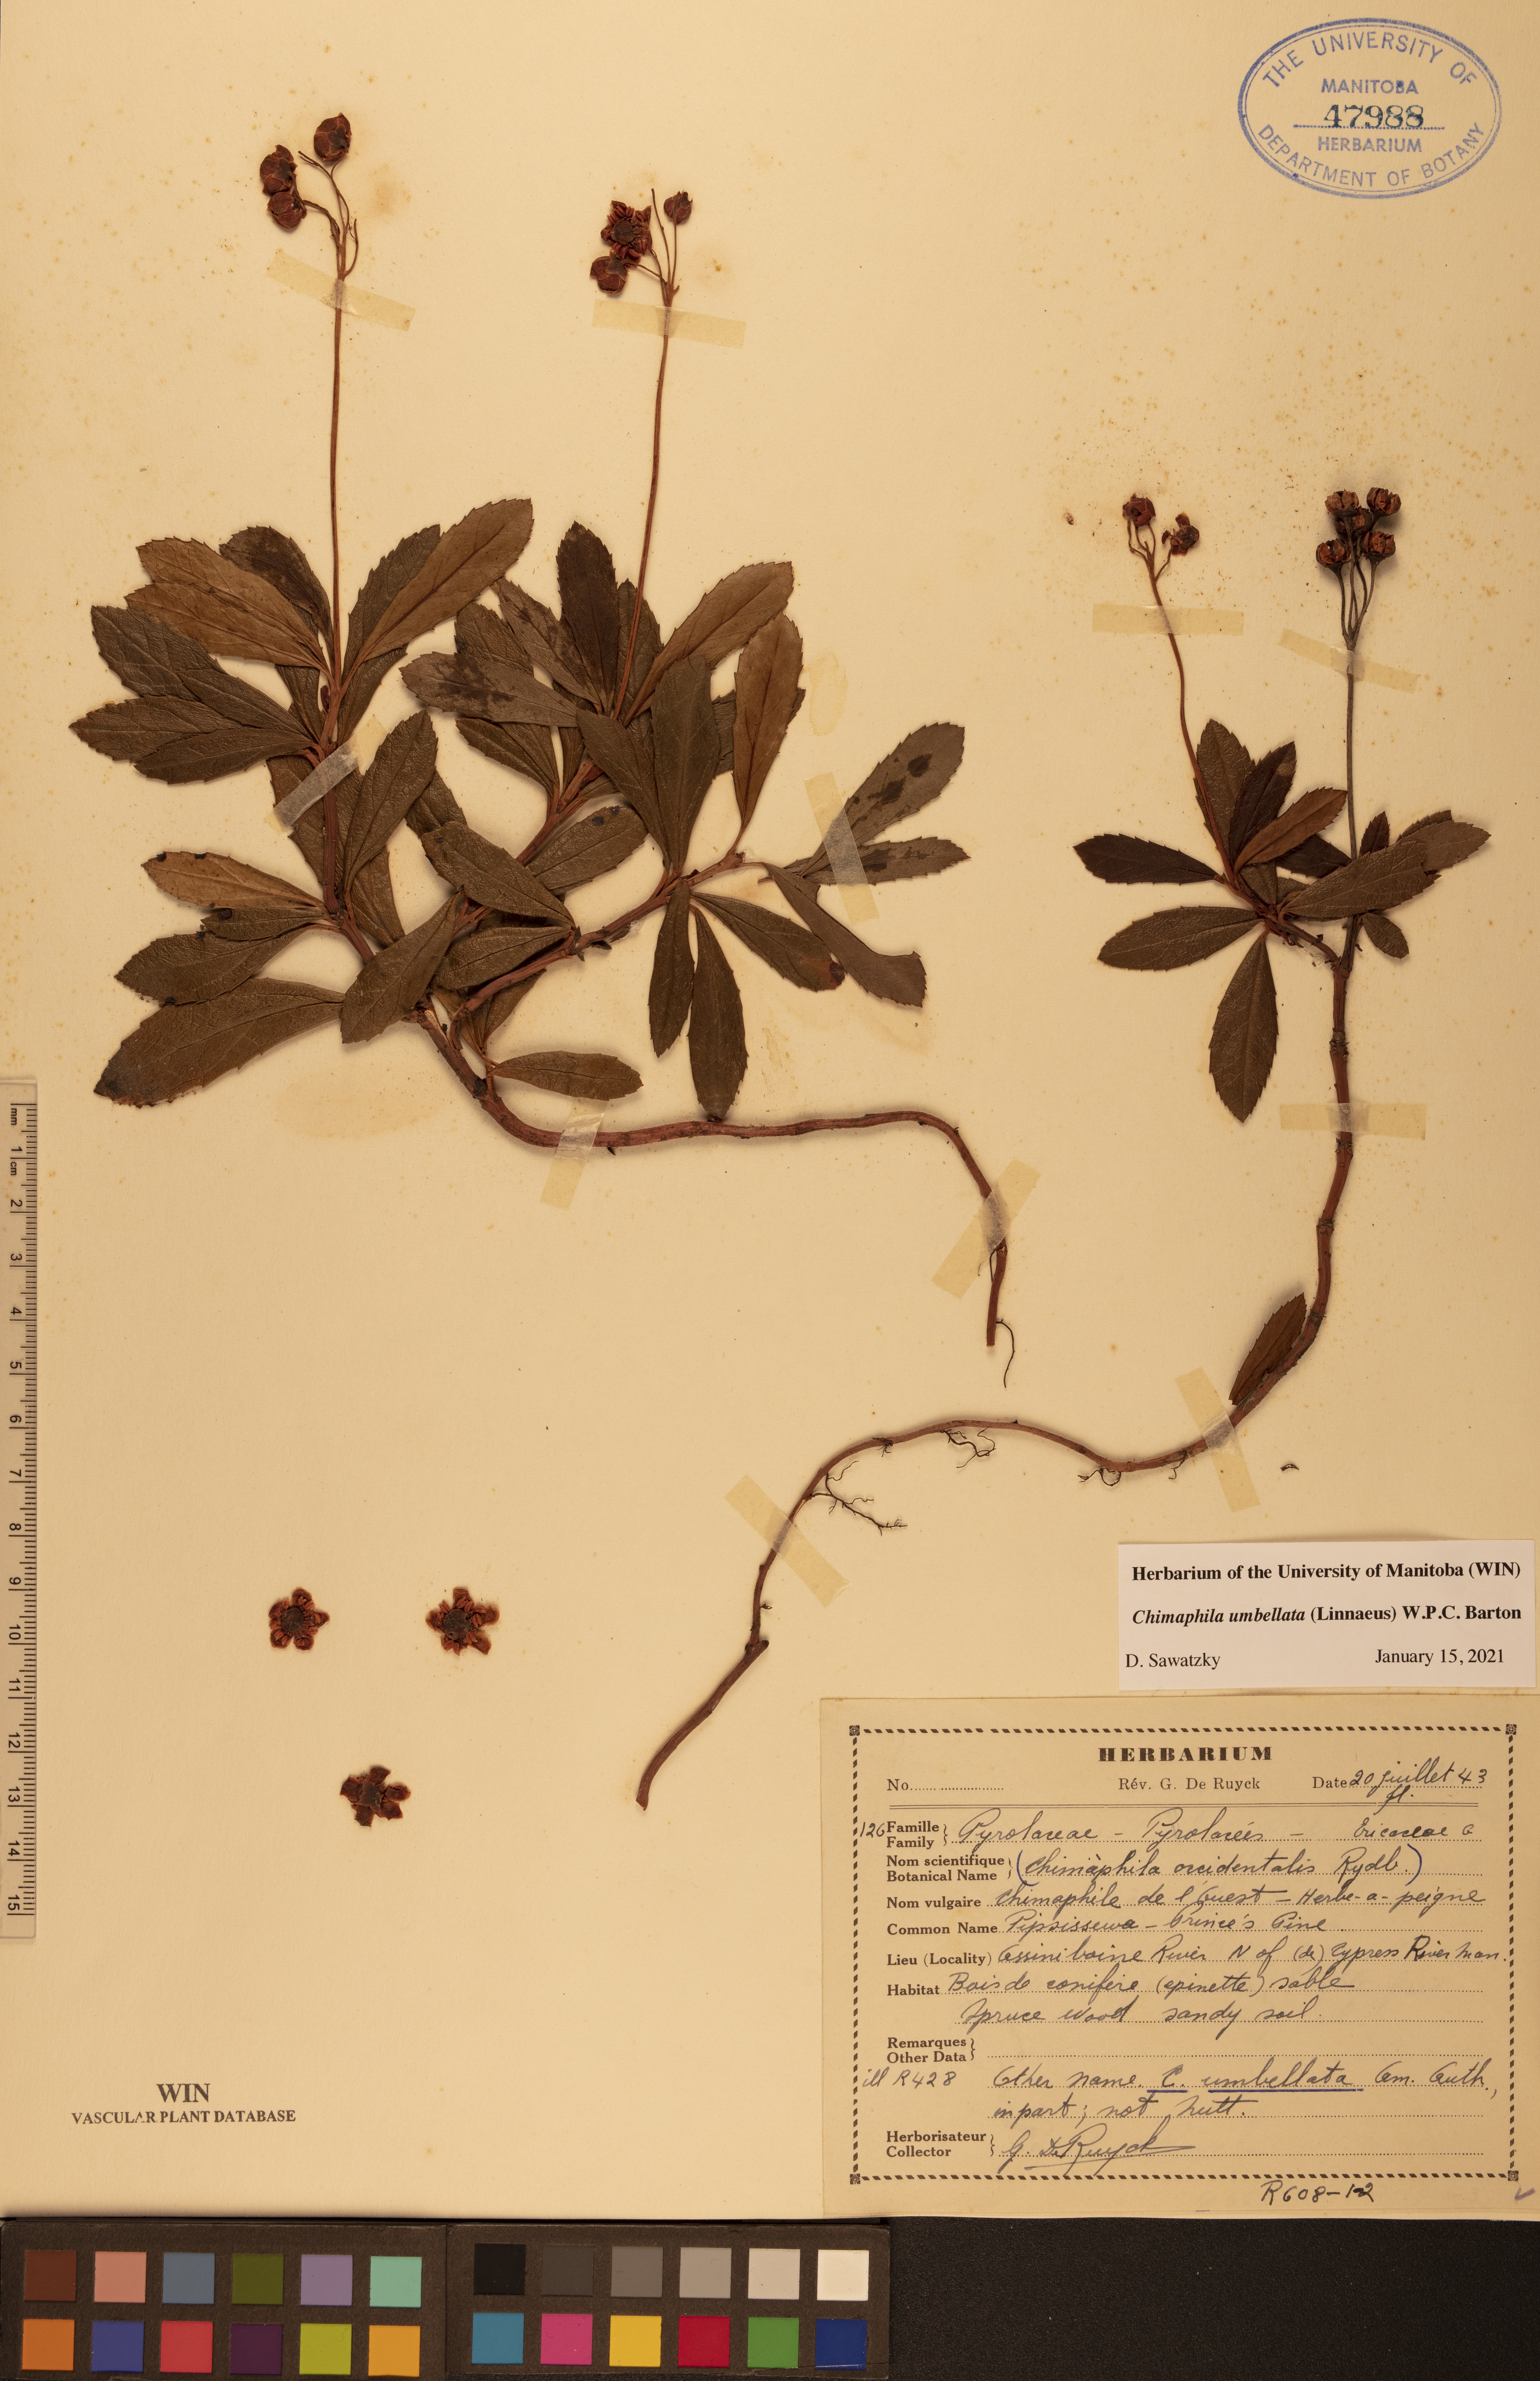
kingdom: Plantae
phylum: Tracheophyta
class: Magnoliopsida
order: Ericales
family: Ericaceae
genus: Chimaphila
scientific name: Chimaphila umbellata
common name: Pipsissewa
